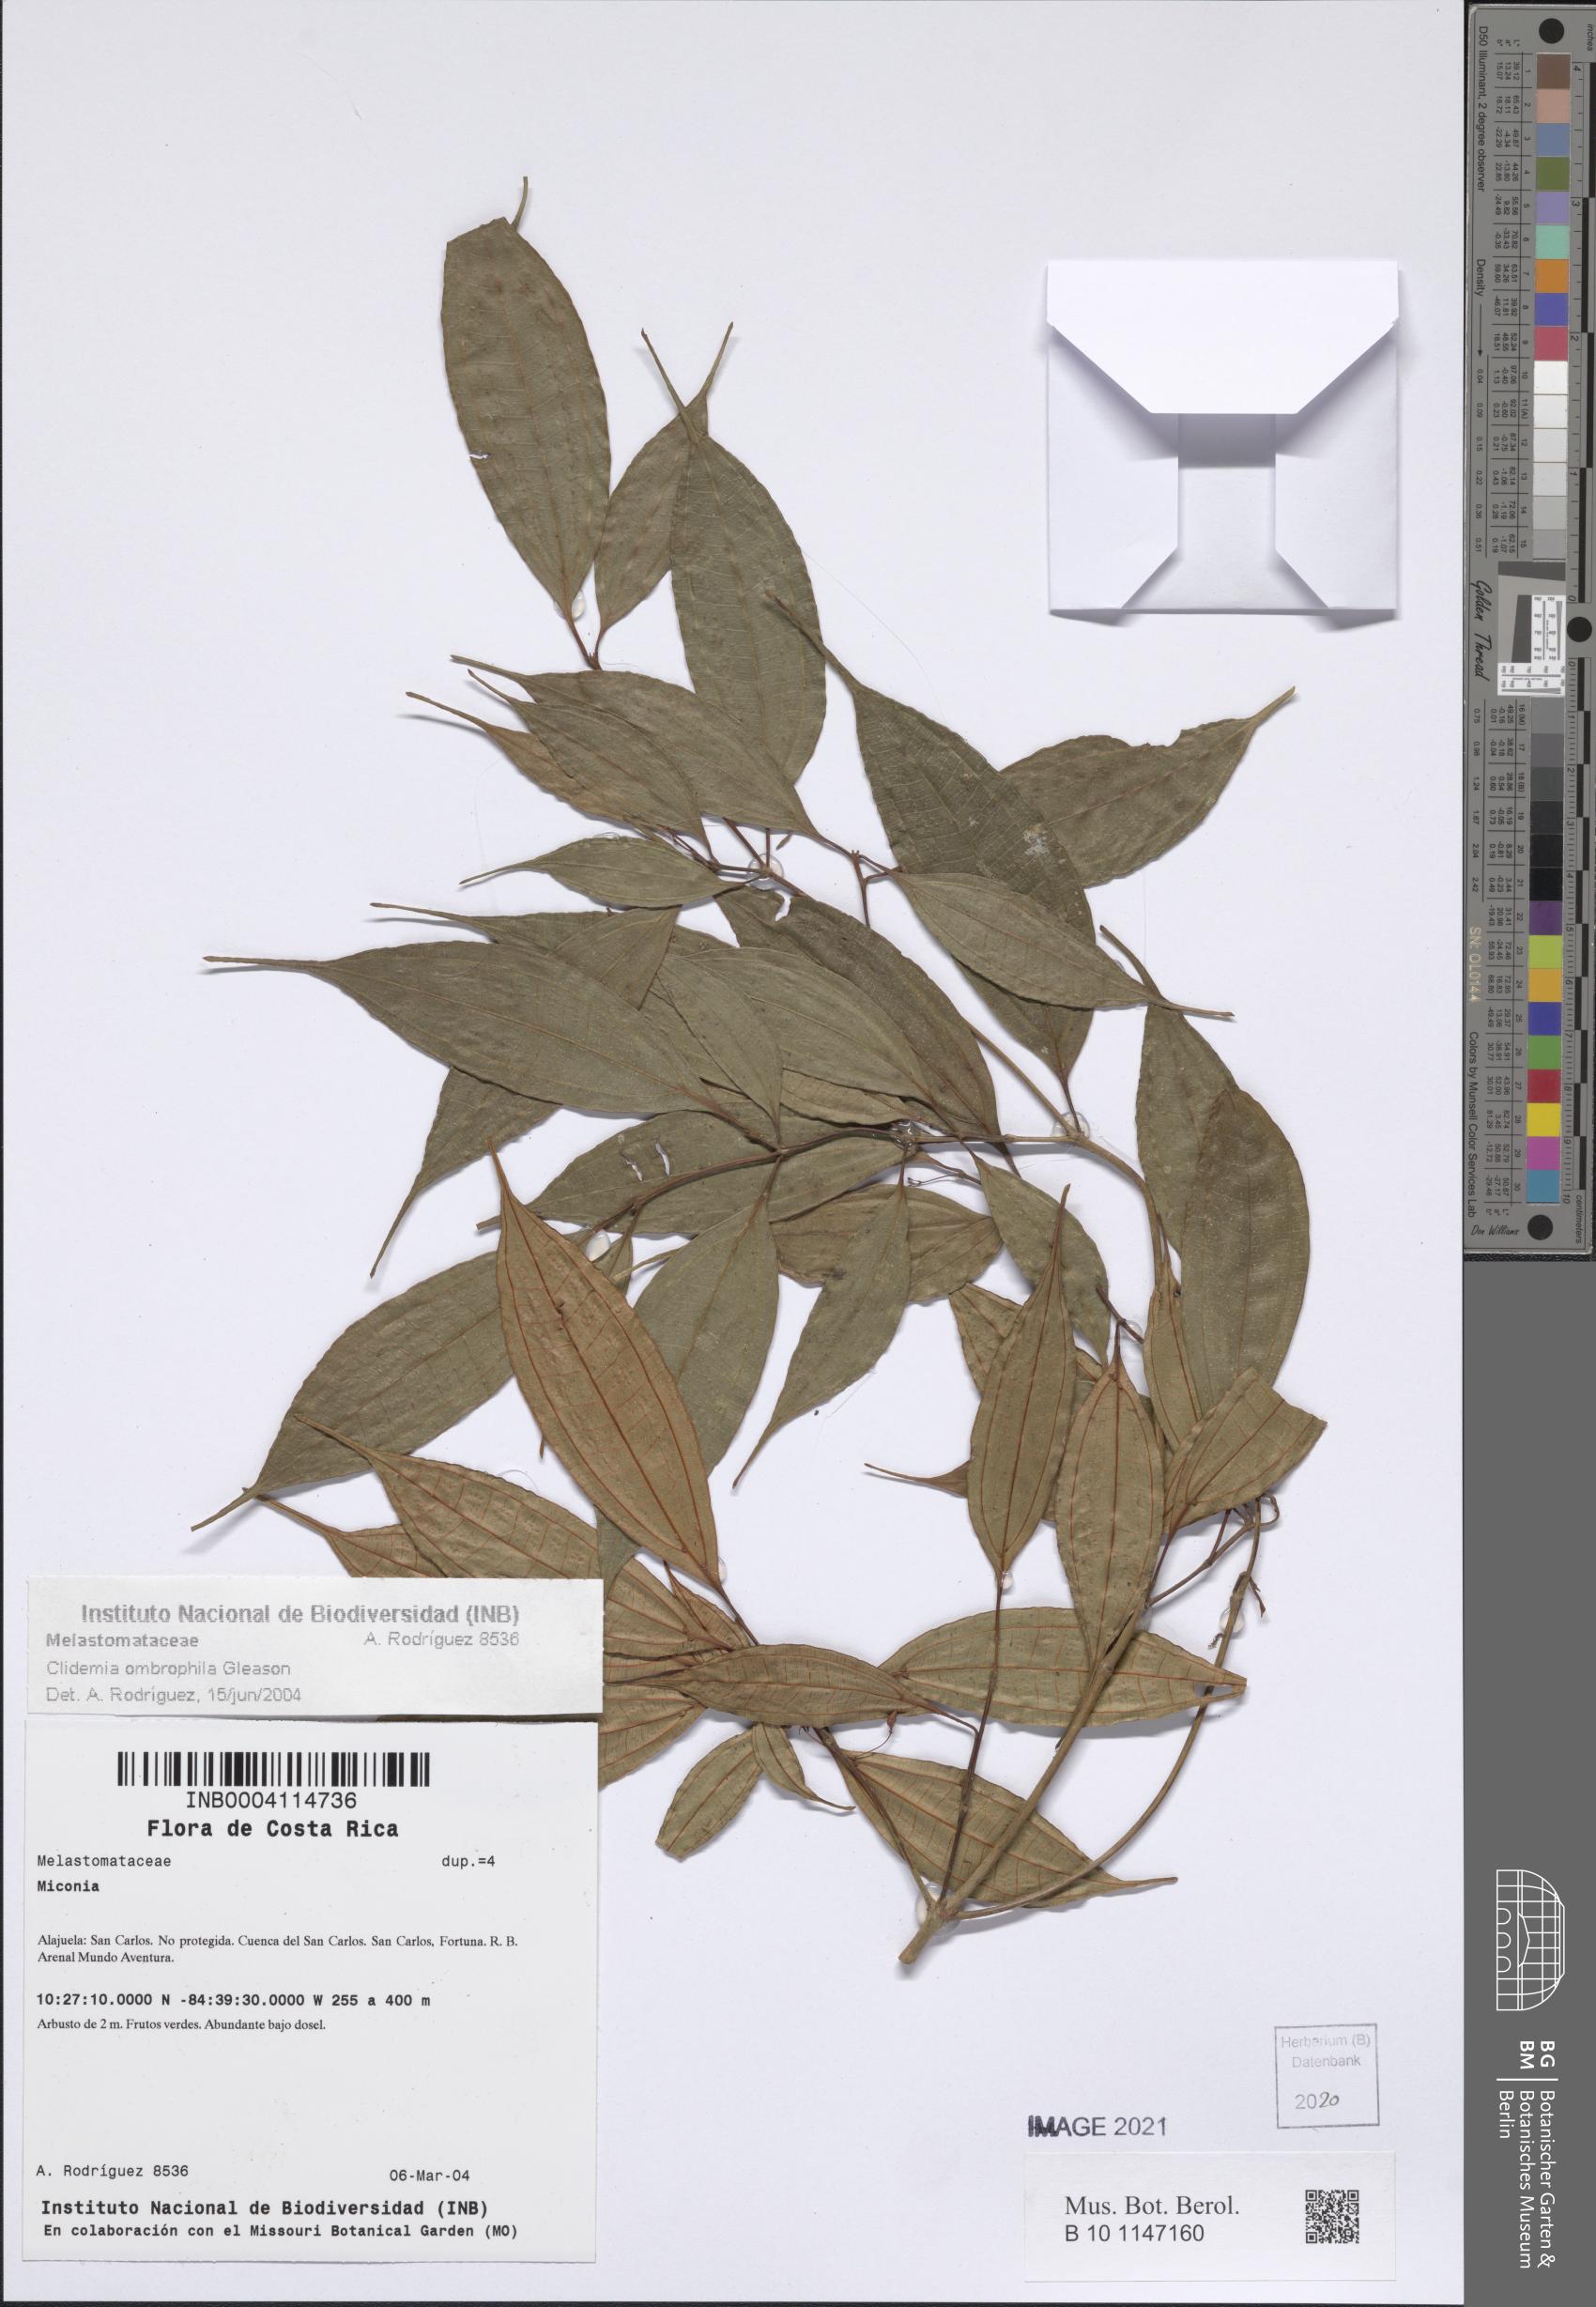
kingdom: Plantae
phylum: Tracheophyta
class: Magnoliopsida
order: Myrtales
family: Melastomataceae
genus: Miconia
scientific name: Miconia silviphila
